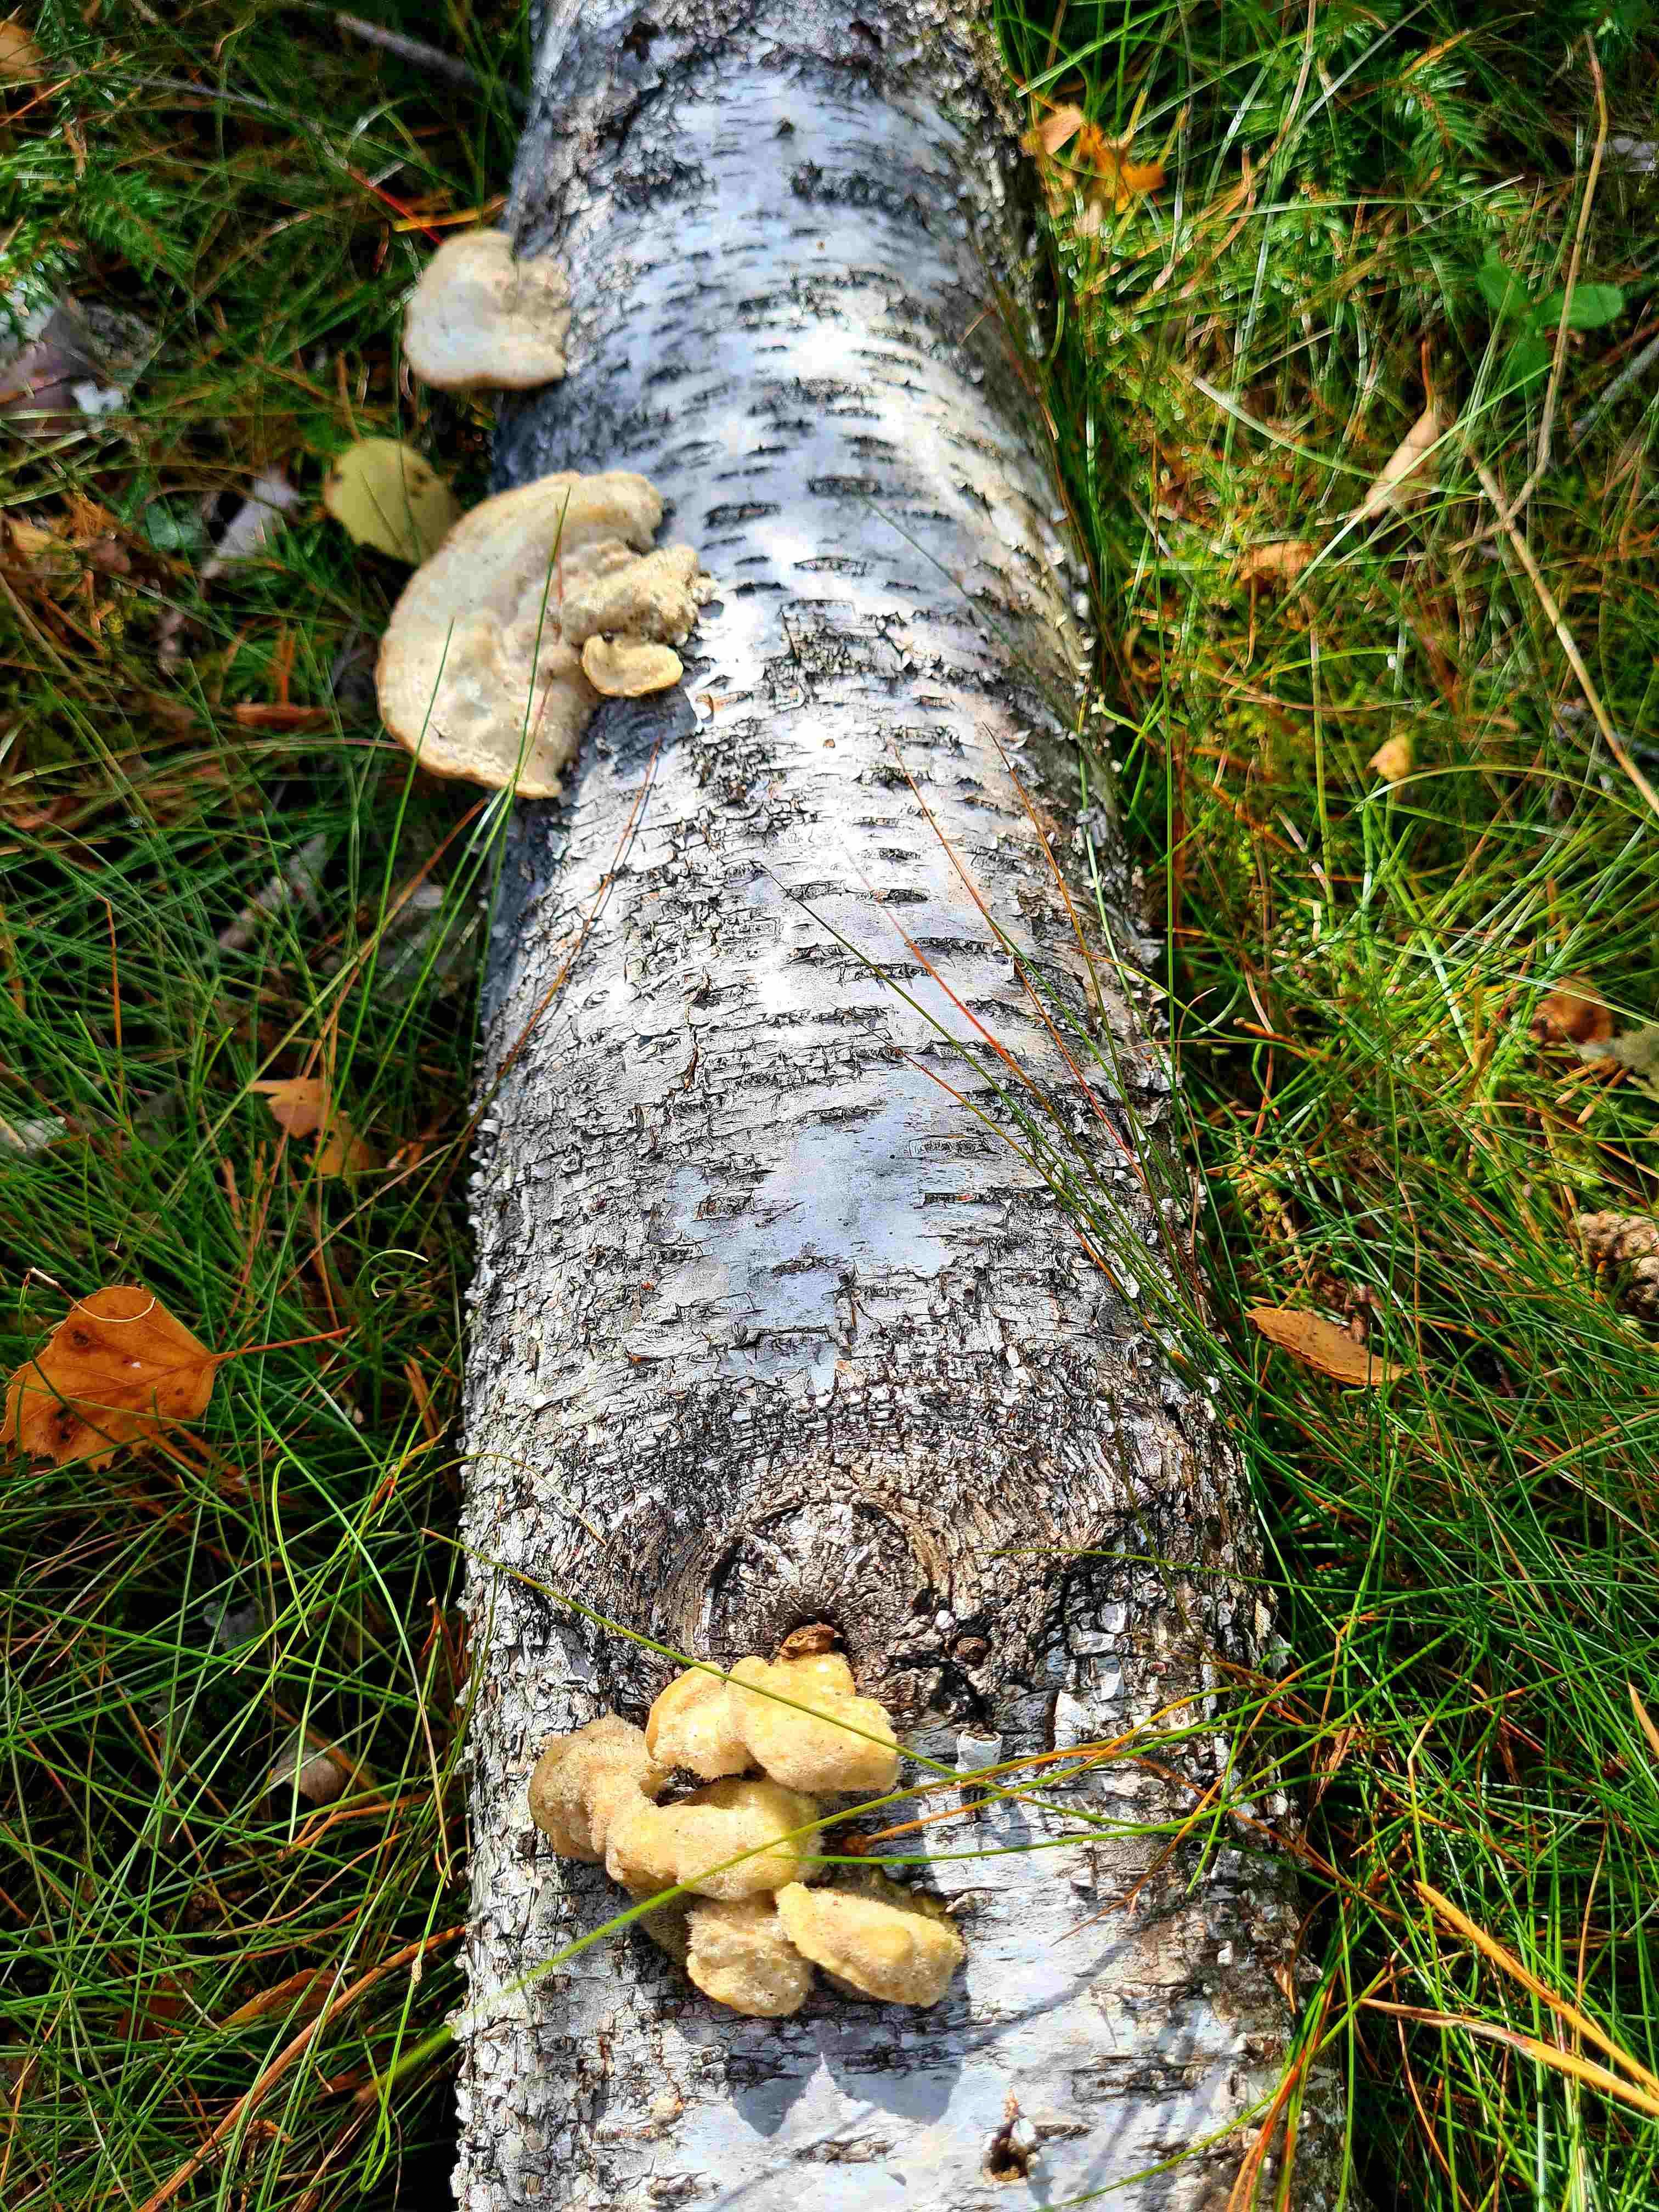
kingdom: Fungi
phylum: Basidiomycota
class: Agaricomycetes
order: Polyporales
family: Polyporaceae
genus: Trametes
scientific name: Trametes hirsuta
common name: håret læderporesvamp
